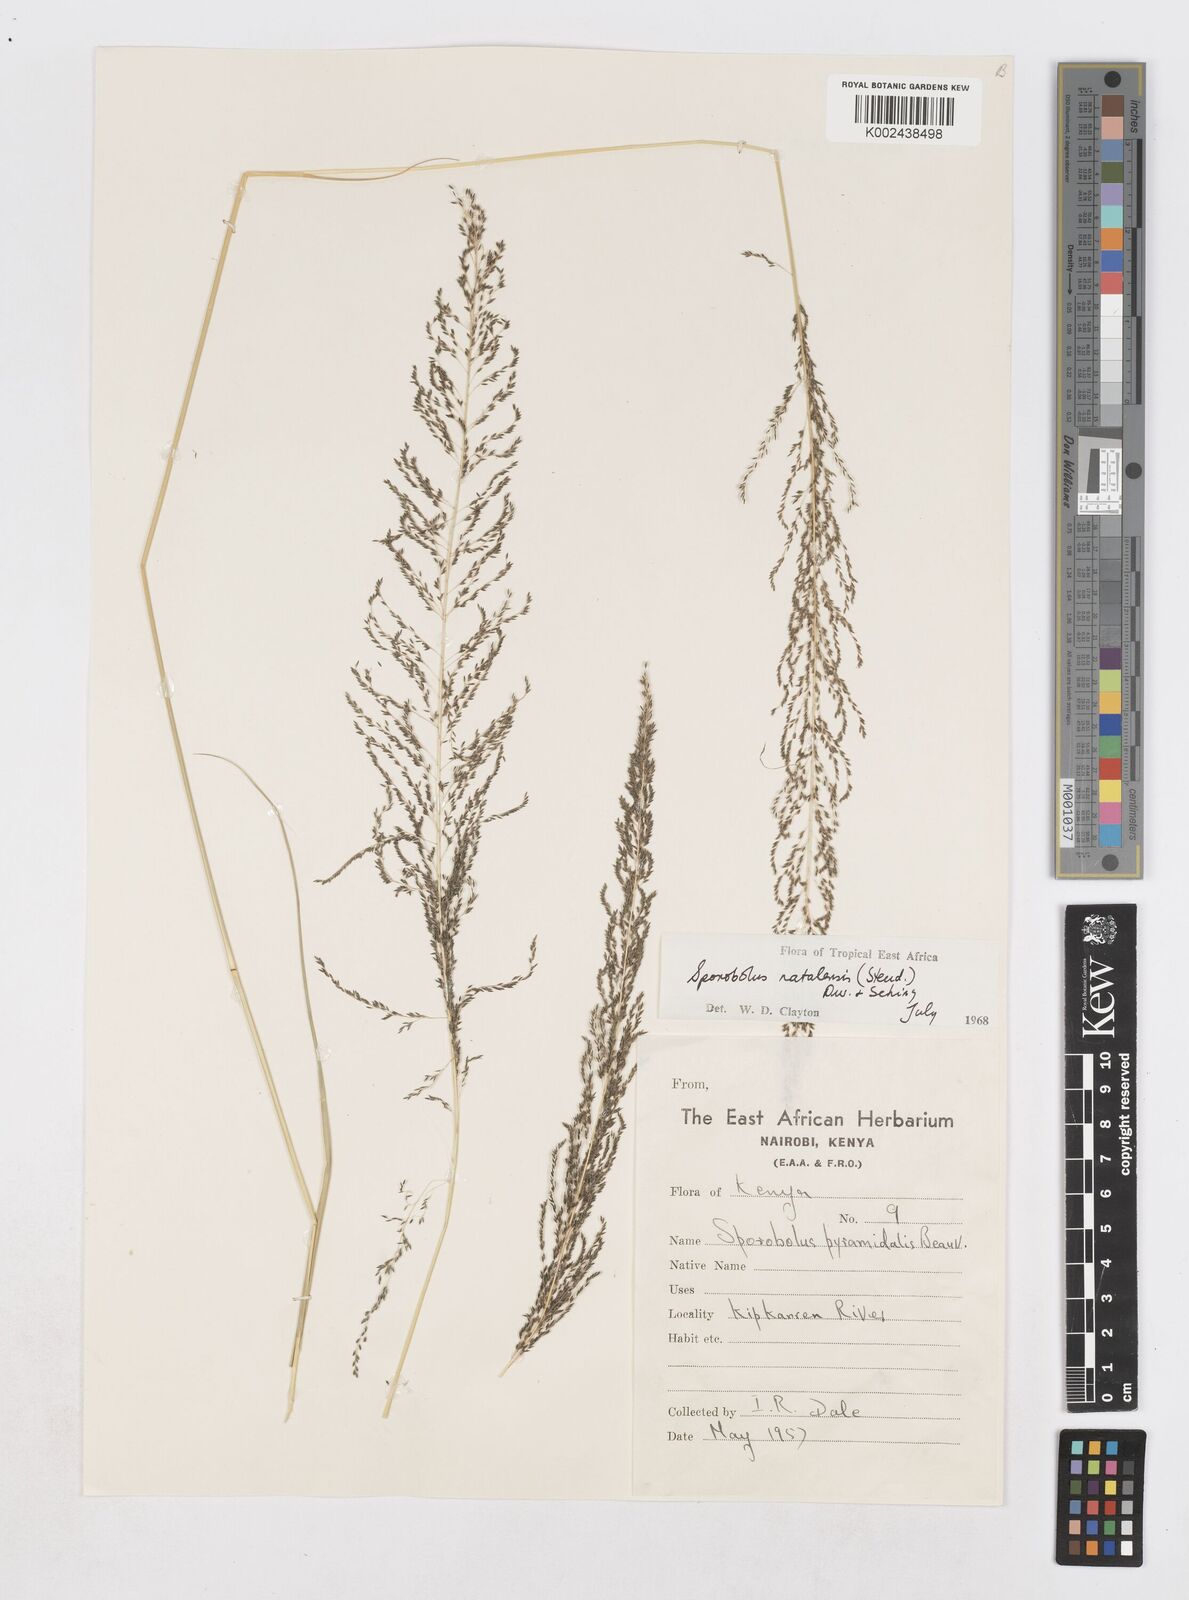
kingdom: Plantae
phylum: Tracheophyta
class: Liliopsida
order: Poales
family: Poaceae
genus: Sporobolus
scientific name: Sporobolus natalensis
